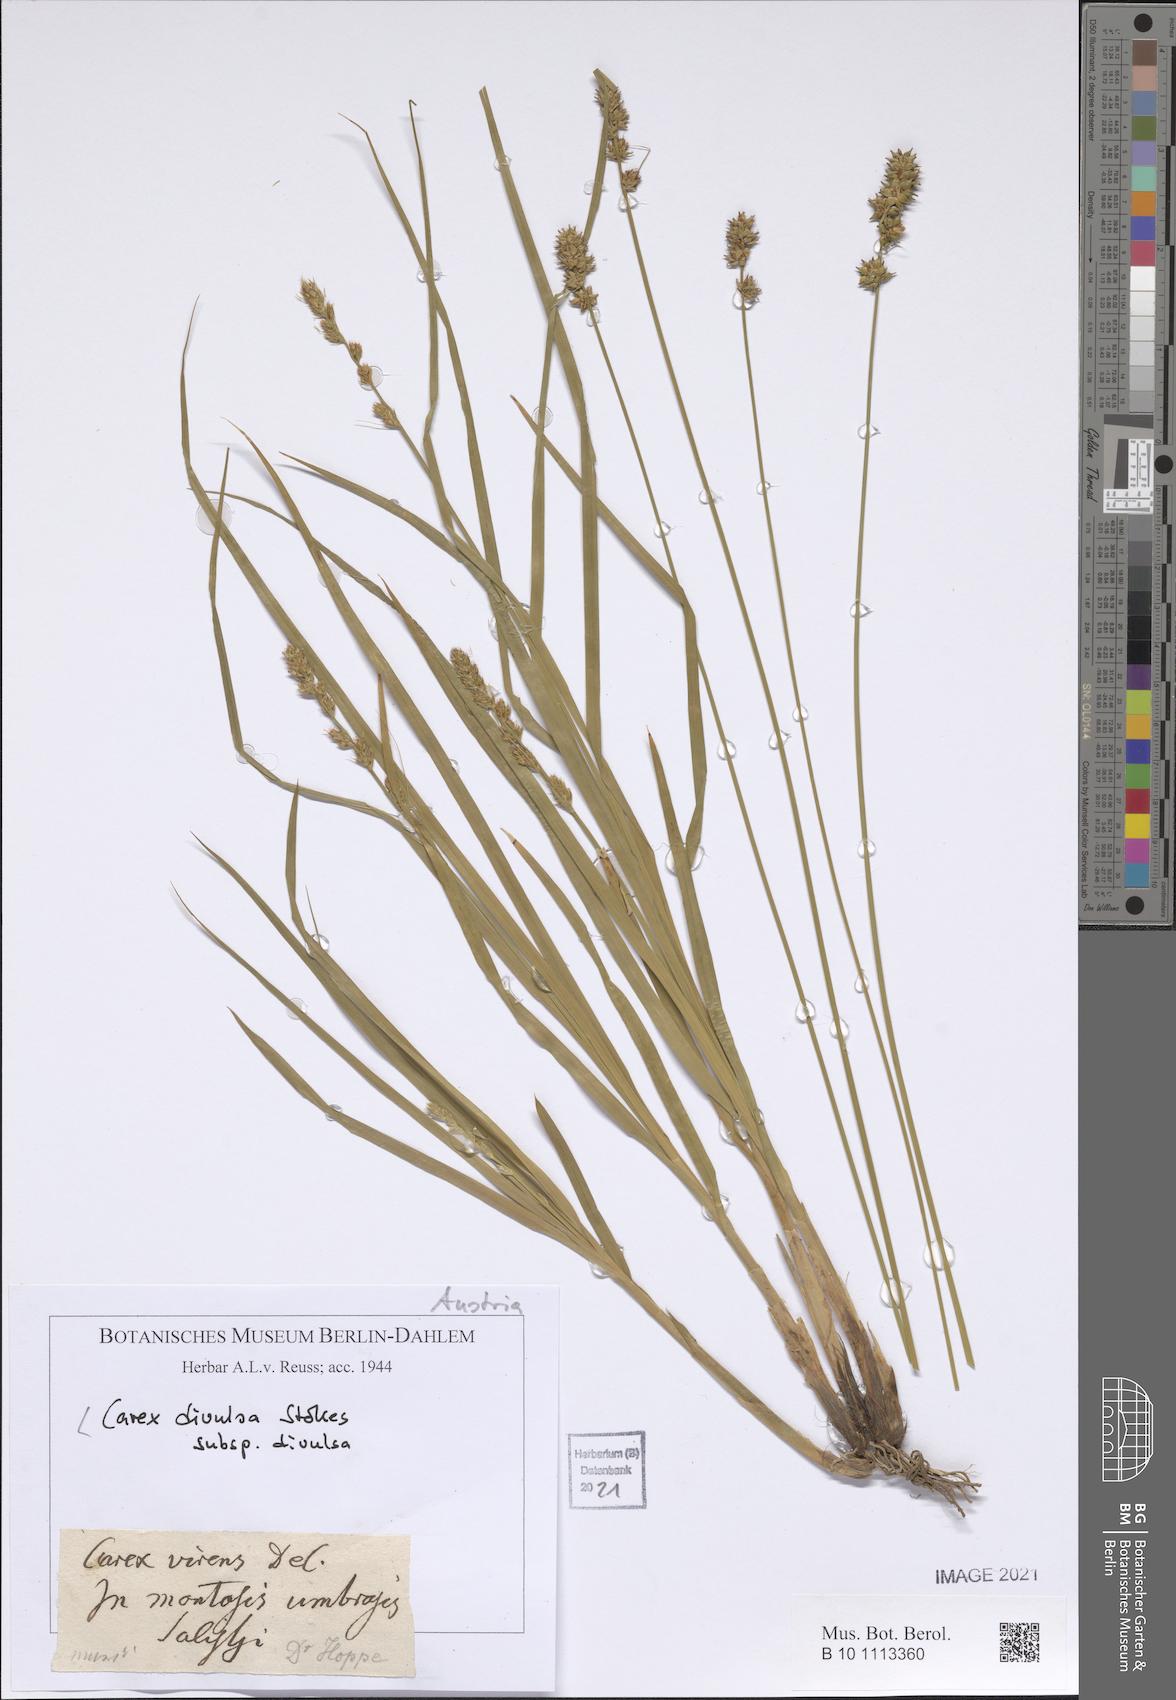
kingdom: Plantae
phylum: Tracheophyta
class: Liliopsida
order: Poales
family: Cyperaceae
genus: Carex
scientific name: Carex divulsa
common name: Grassland sedge
